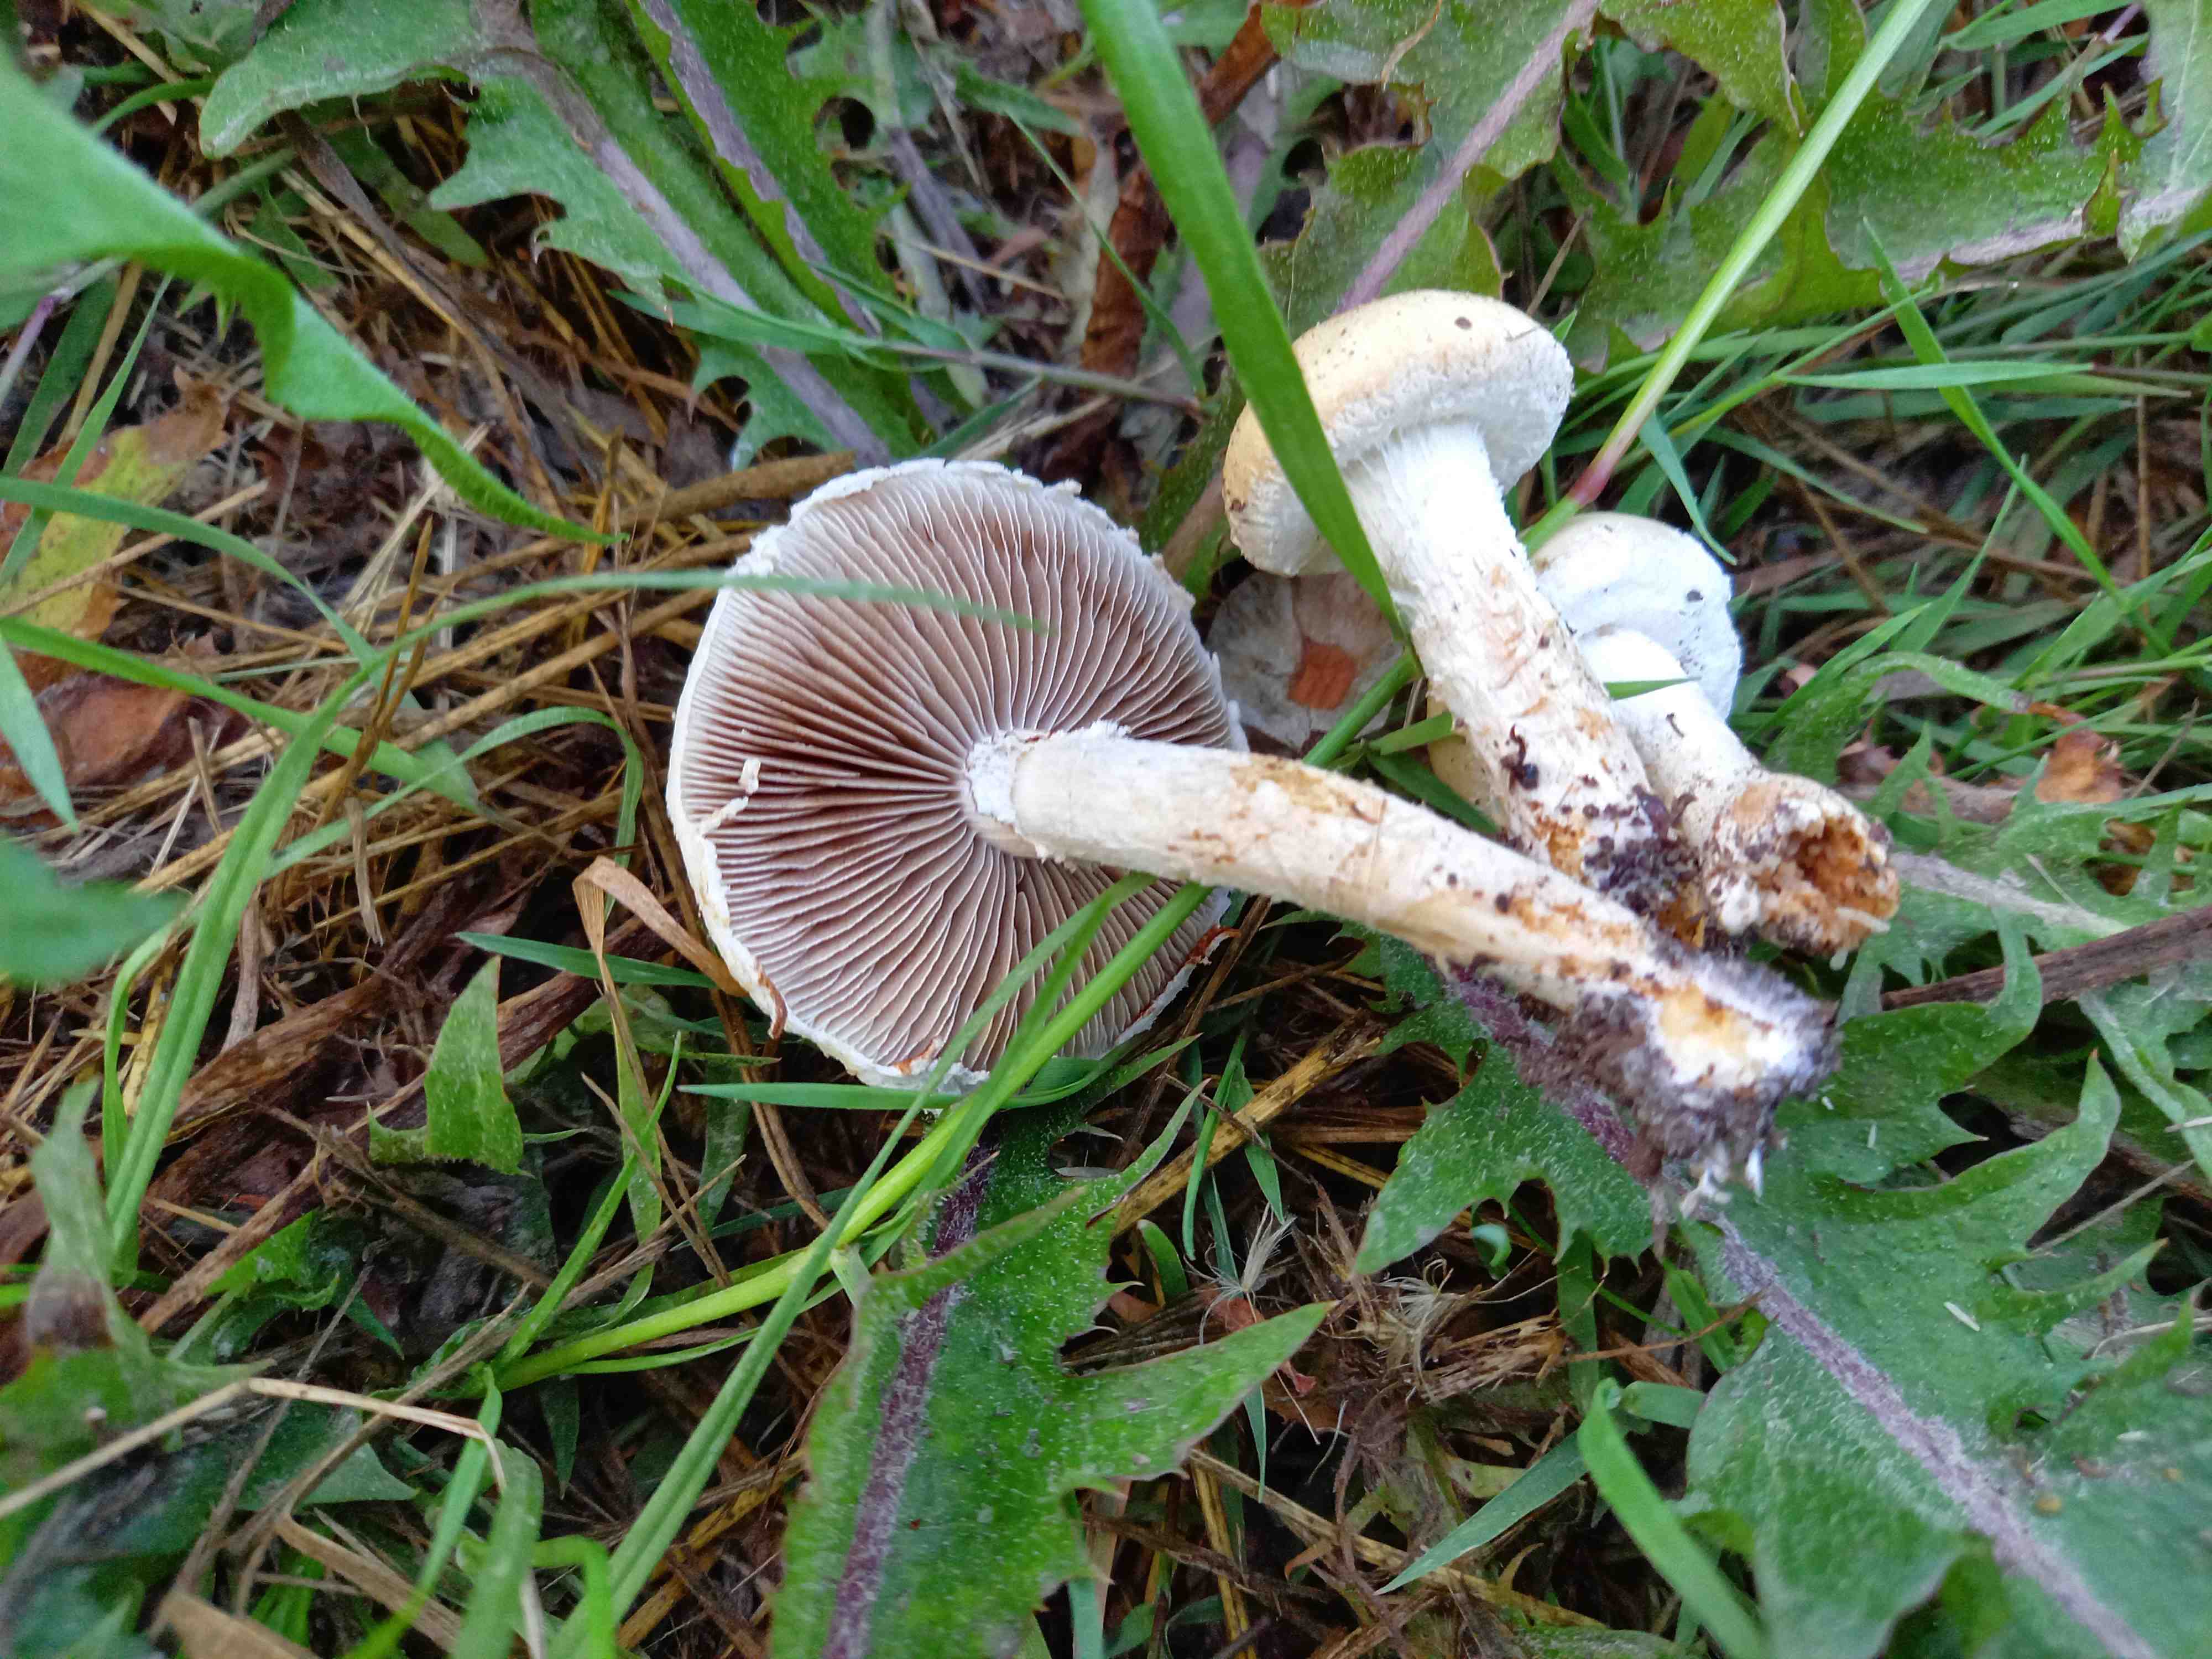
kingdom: Fungi
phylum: Basidiomycota
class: Agaricomycetes
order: Agaricales
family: Strophariaceae
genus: Agrocybe
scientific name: Agrocybe dura
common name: fastkødet agerhat
